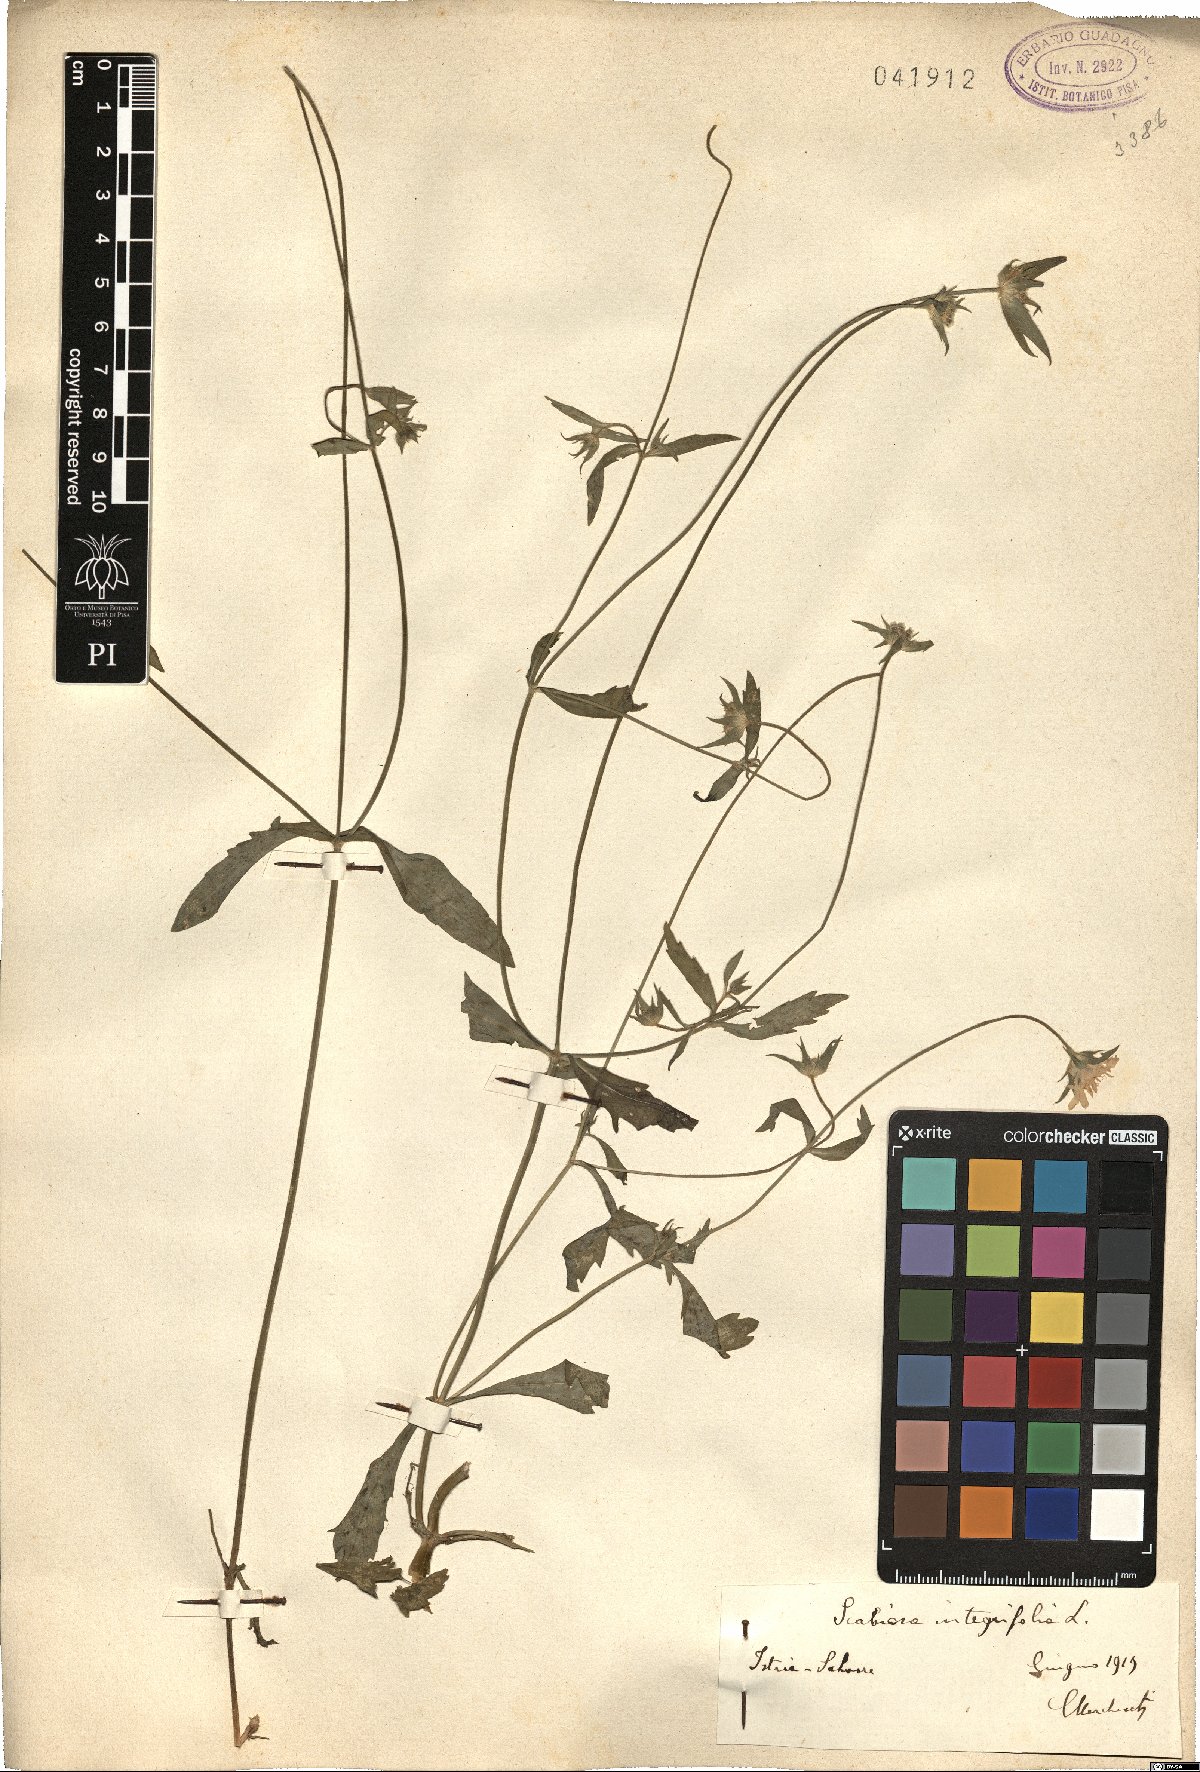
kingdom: Plantae
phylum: Tracheophyta
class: Magnoliopsida
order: Dipsacales
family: Caprifoliaceae
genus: Knautia
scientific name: Knautia integrifolia
